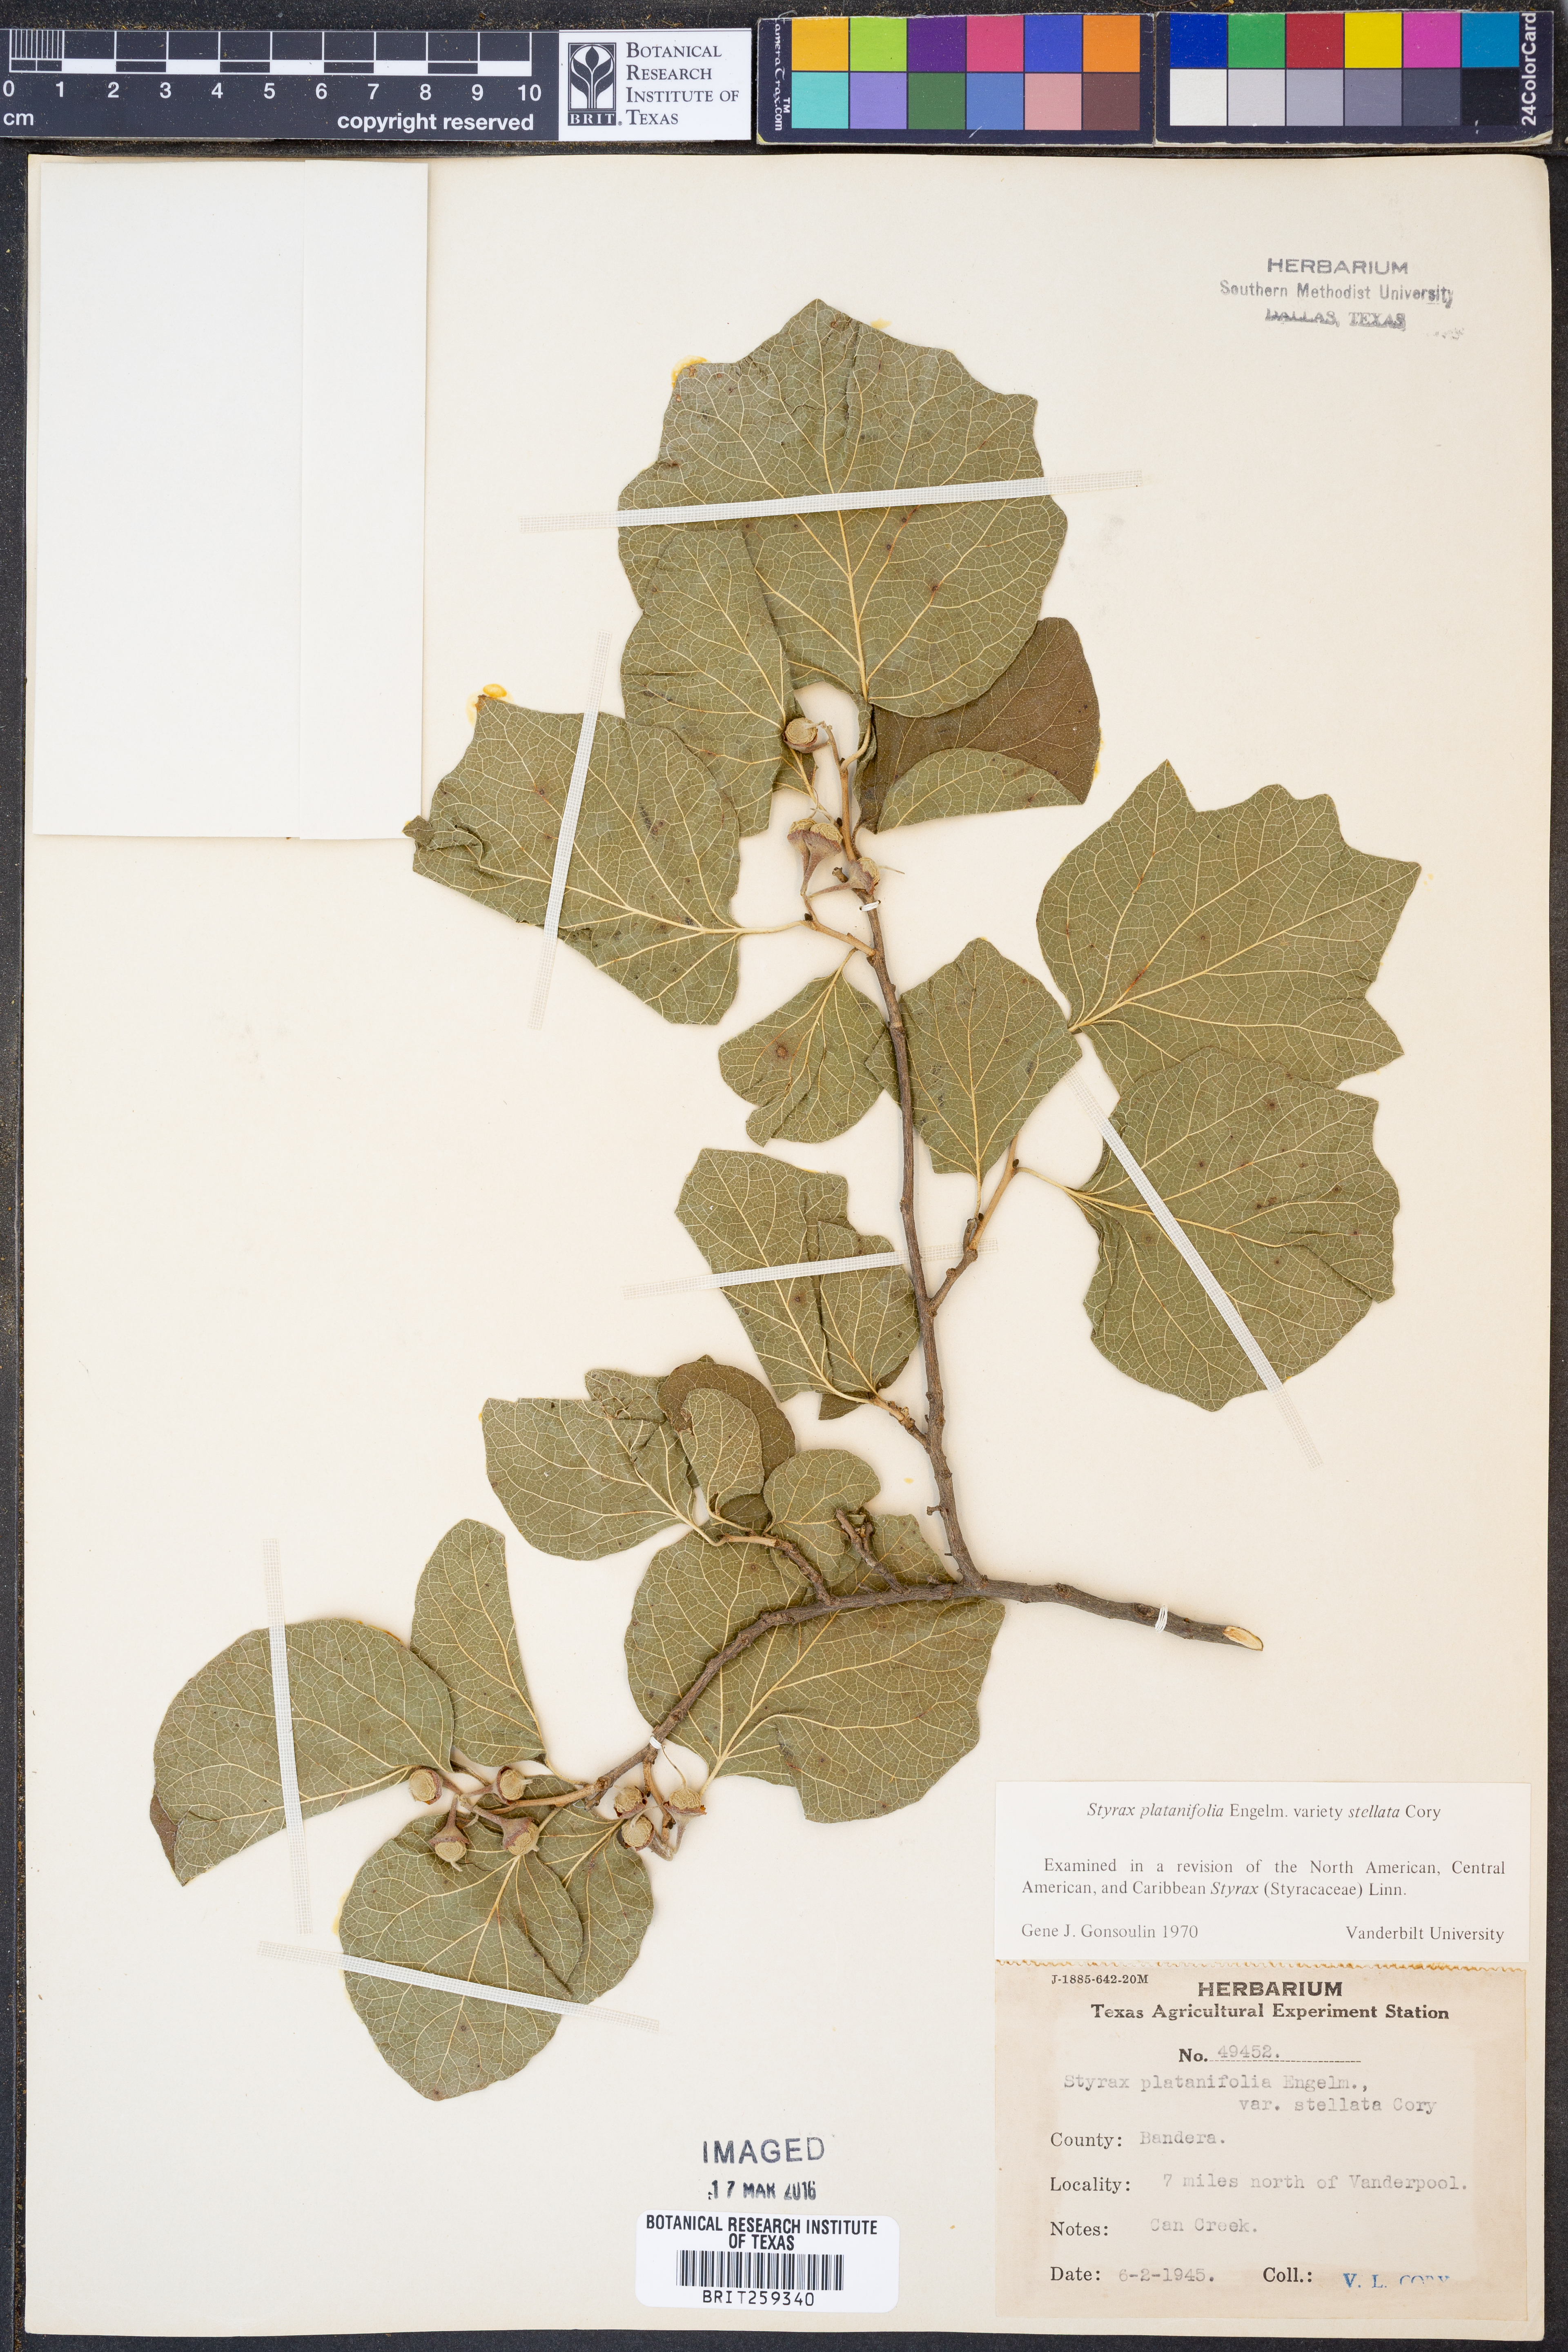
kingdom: Plantae
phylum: Tracheophyta
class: Magnoliopsida
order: Ericales
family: Styracaceae
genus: Styrax
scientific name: Styrax platanifolius
